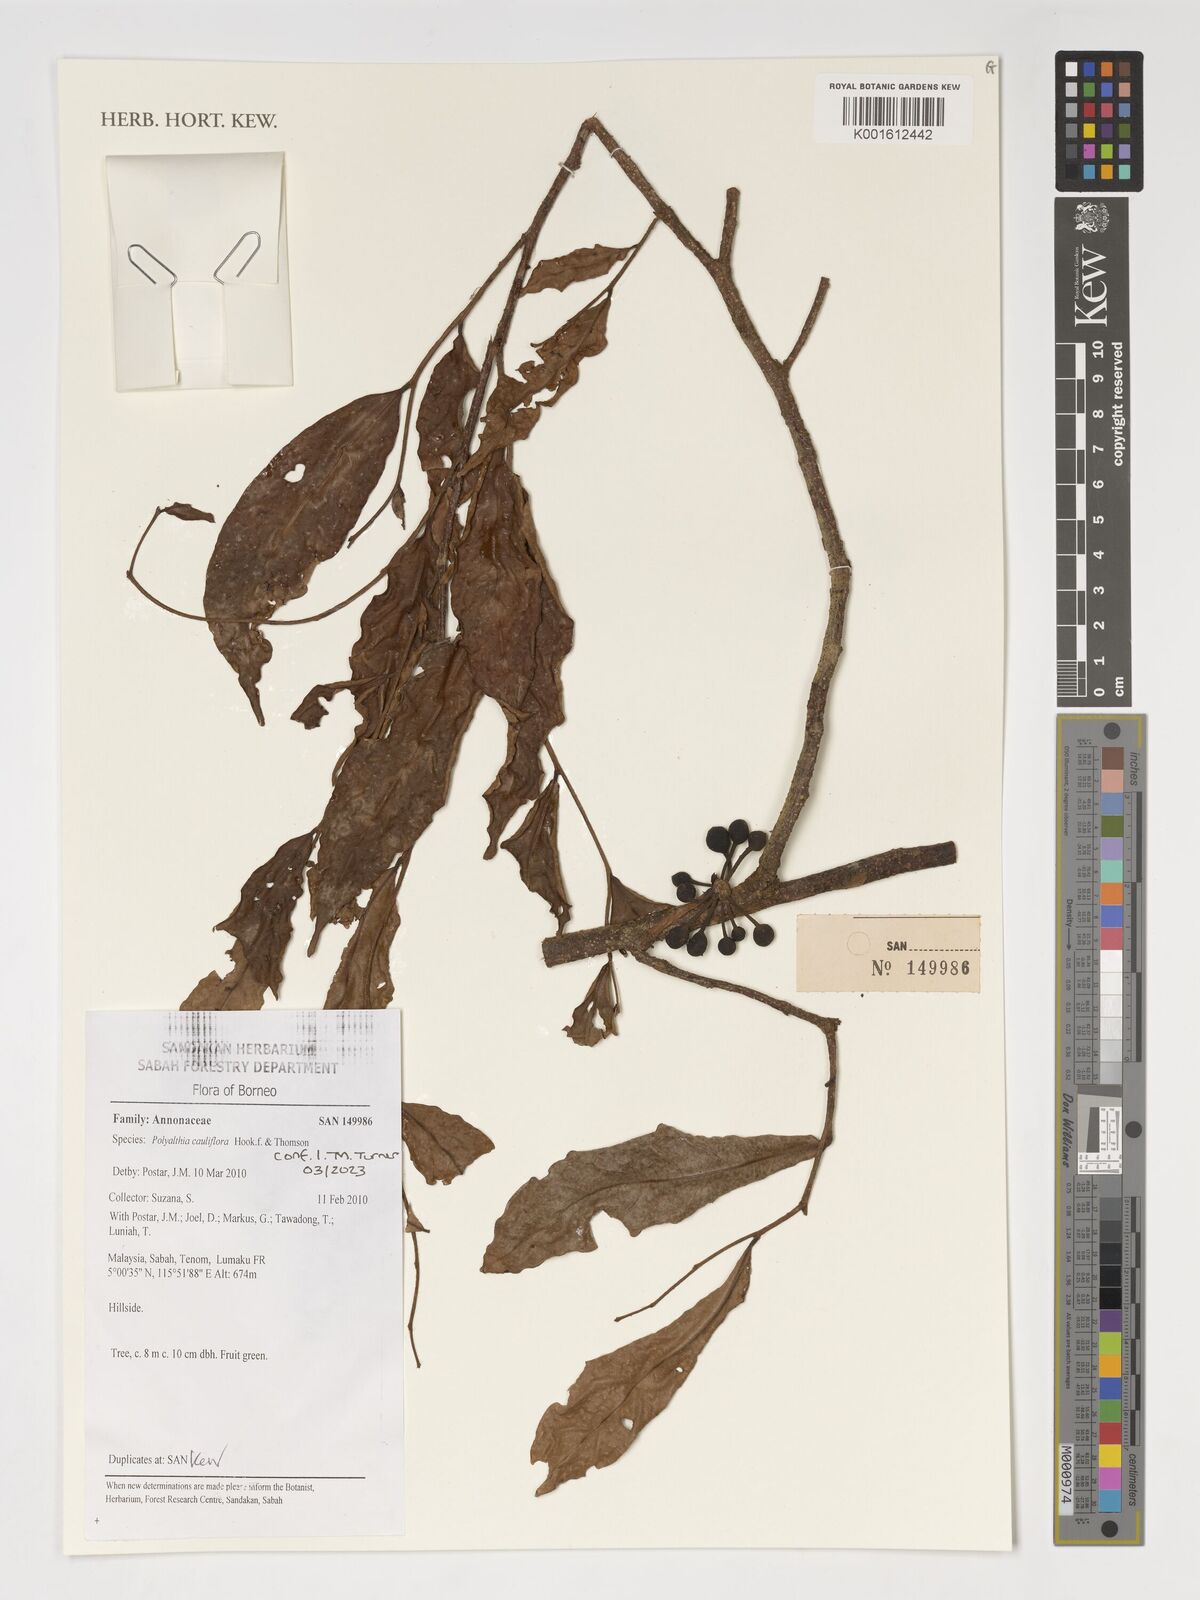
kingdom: Plantae
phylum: Tracheophyta
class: Magnoliopsida
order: Magnoliales
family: Annonaceae
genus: Polyalthia
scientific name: Polyalthia cauliflora
